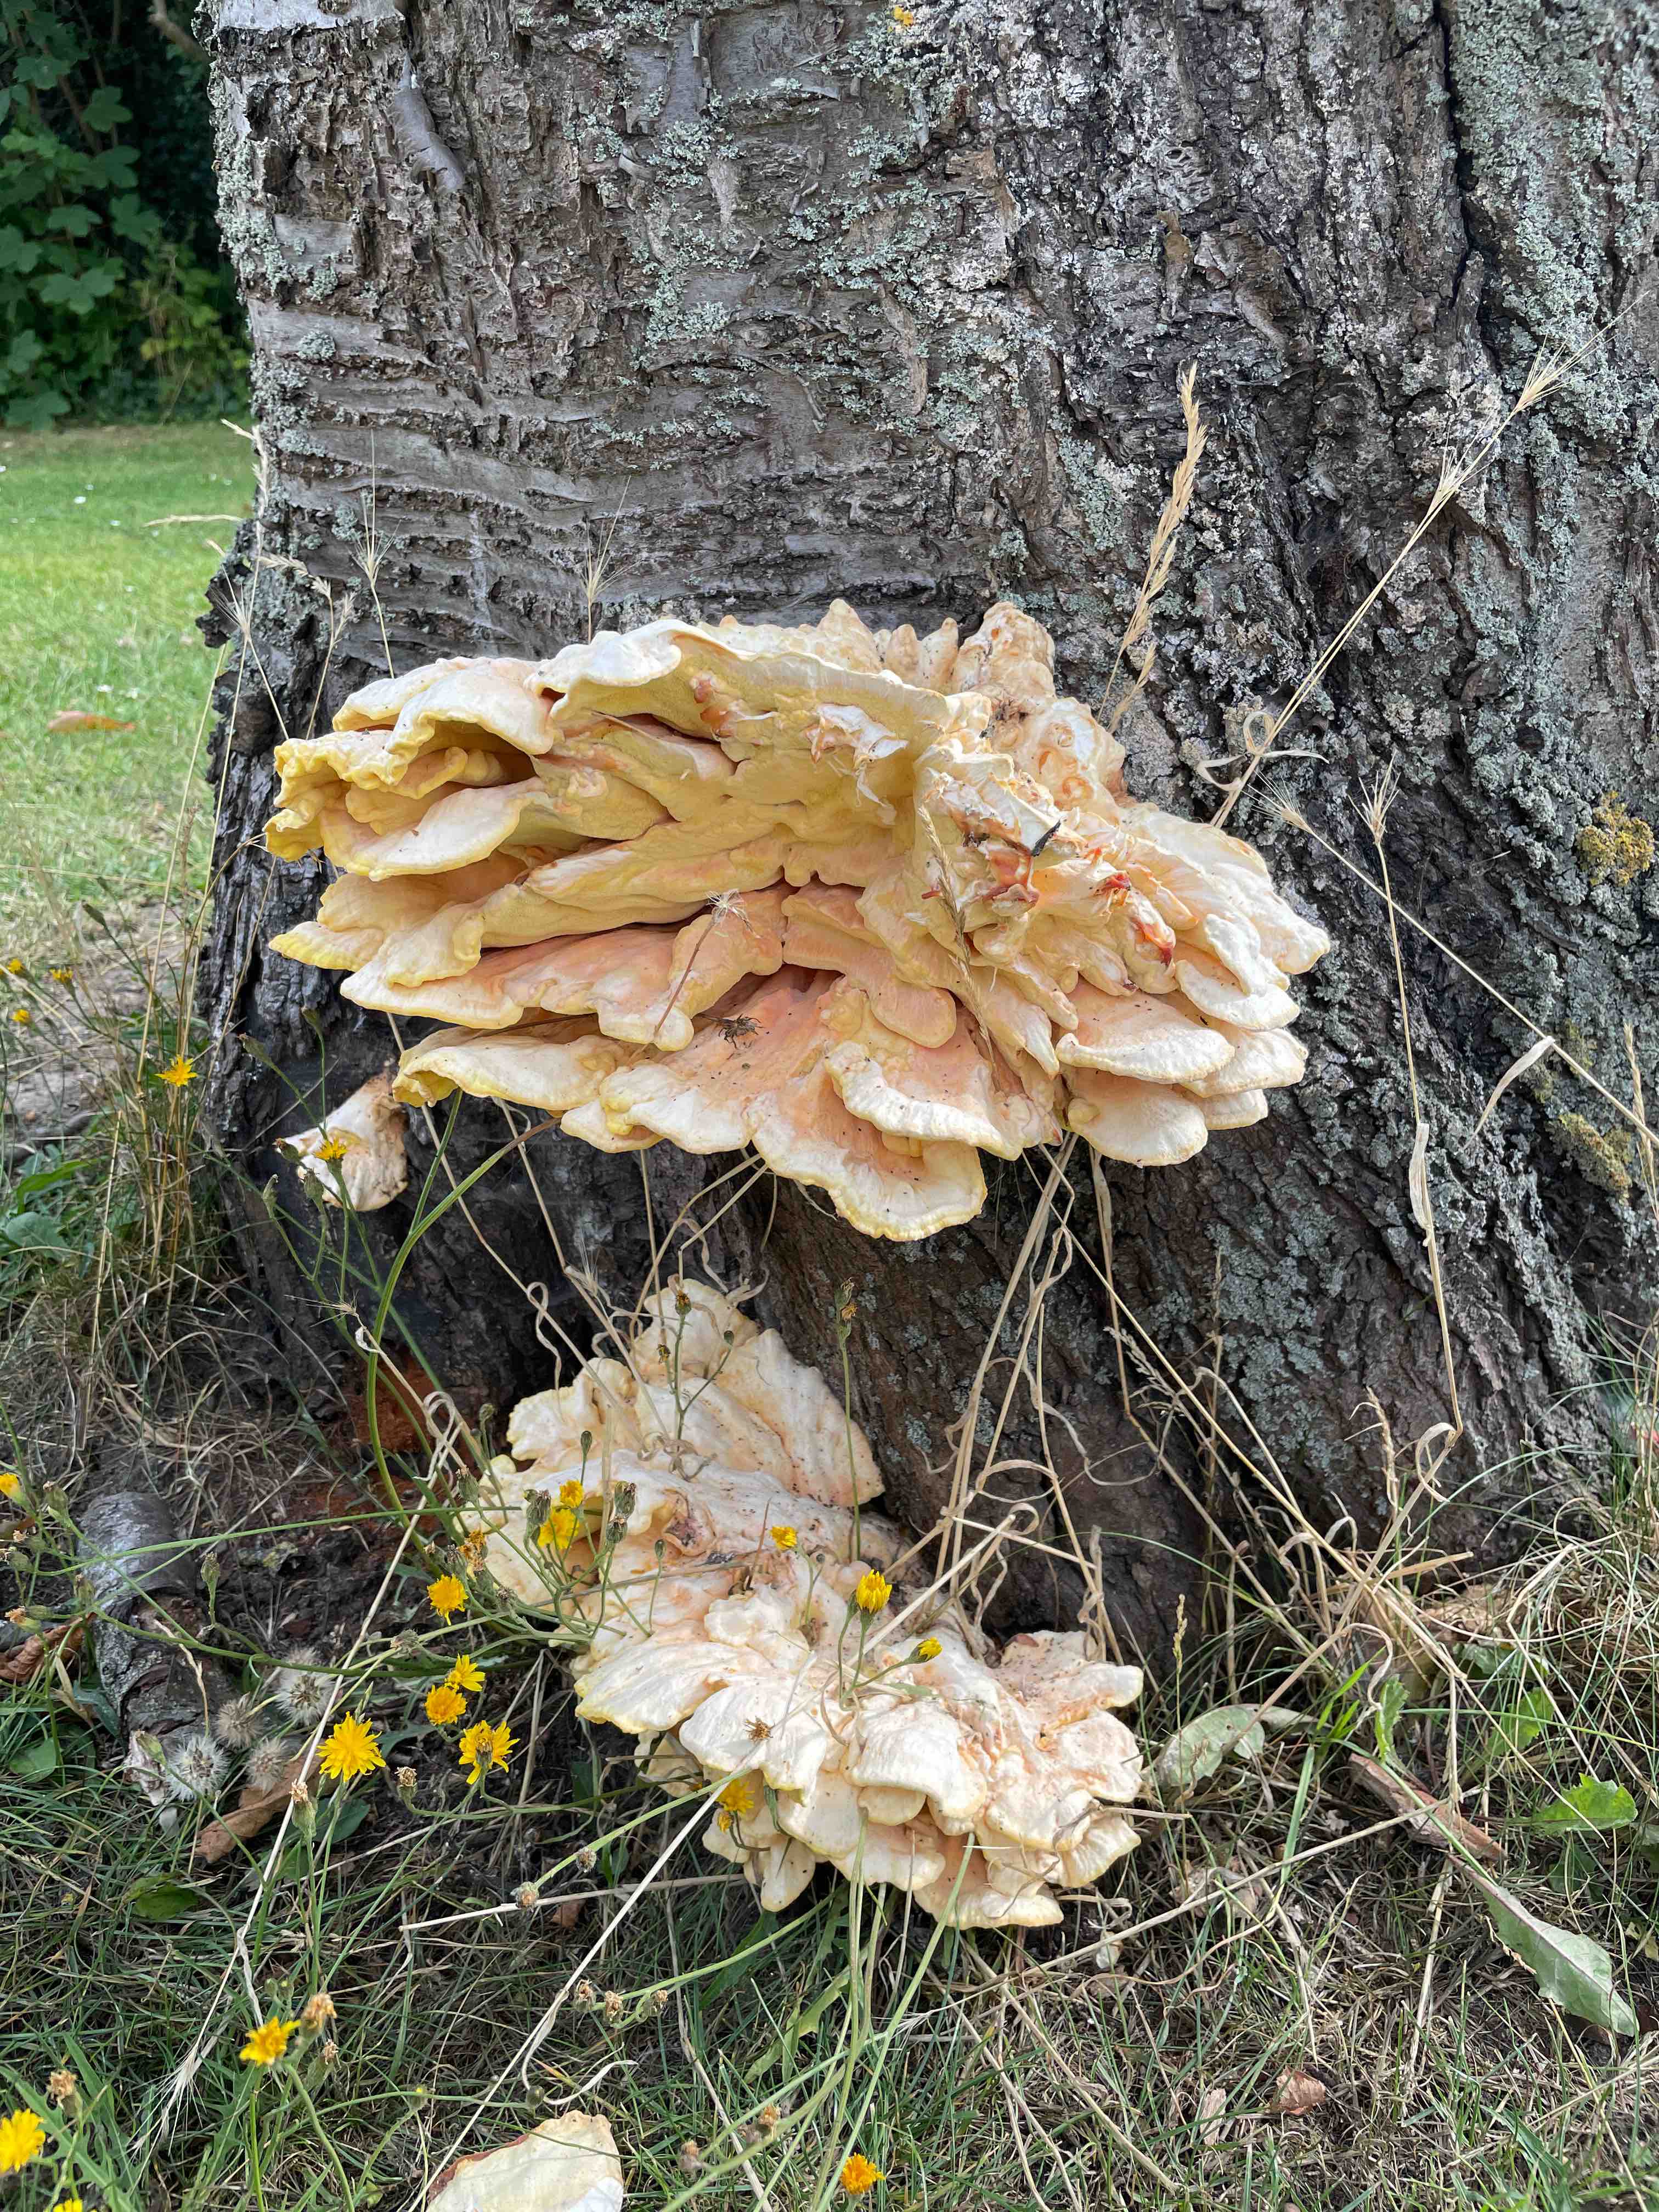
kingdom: Fungi
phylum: Basidiomycota
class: Agaricomycetes
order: Polyporales
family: Laetiporaceae
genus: Laetiporus
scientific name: Laetiporus sulphureus
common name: svovlporesvamp
